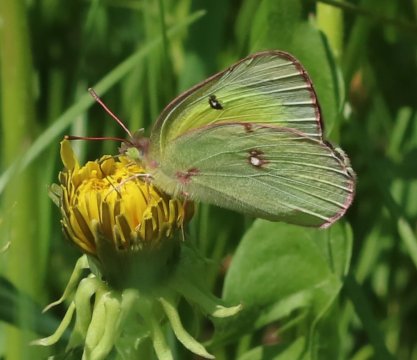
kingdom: Animalia
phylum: Arthropoda
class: Insecta
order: Lepidoptera
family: Pieridae
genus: Colias
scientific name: Colias philodice
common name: Clouded Sulphur
